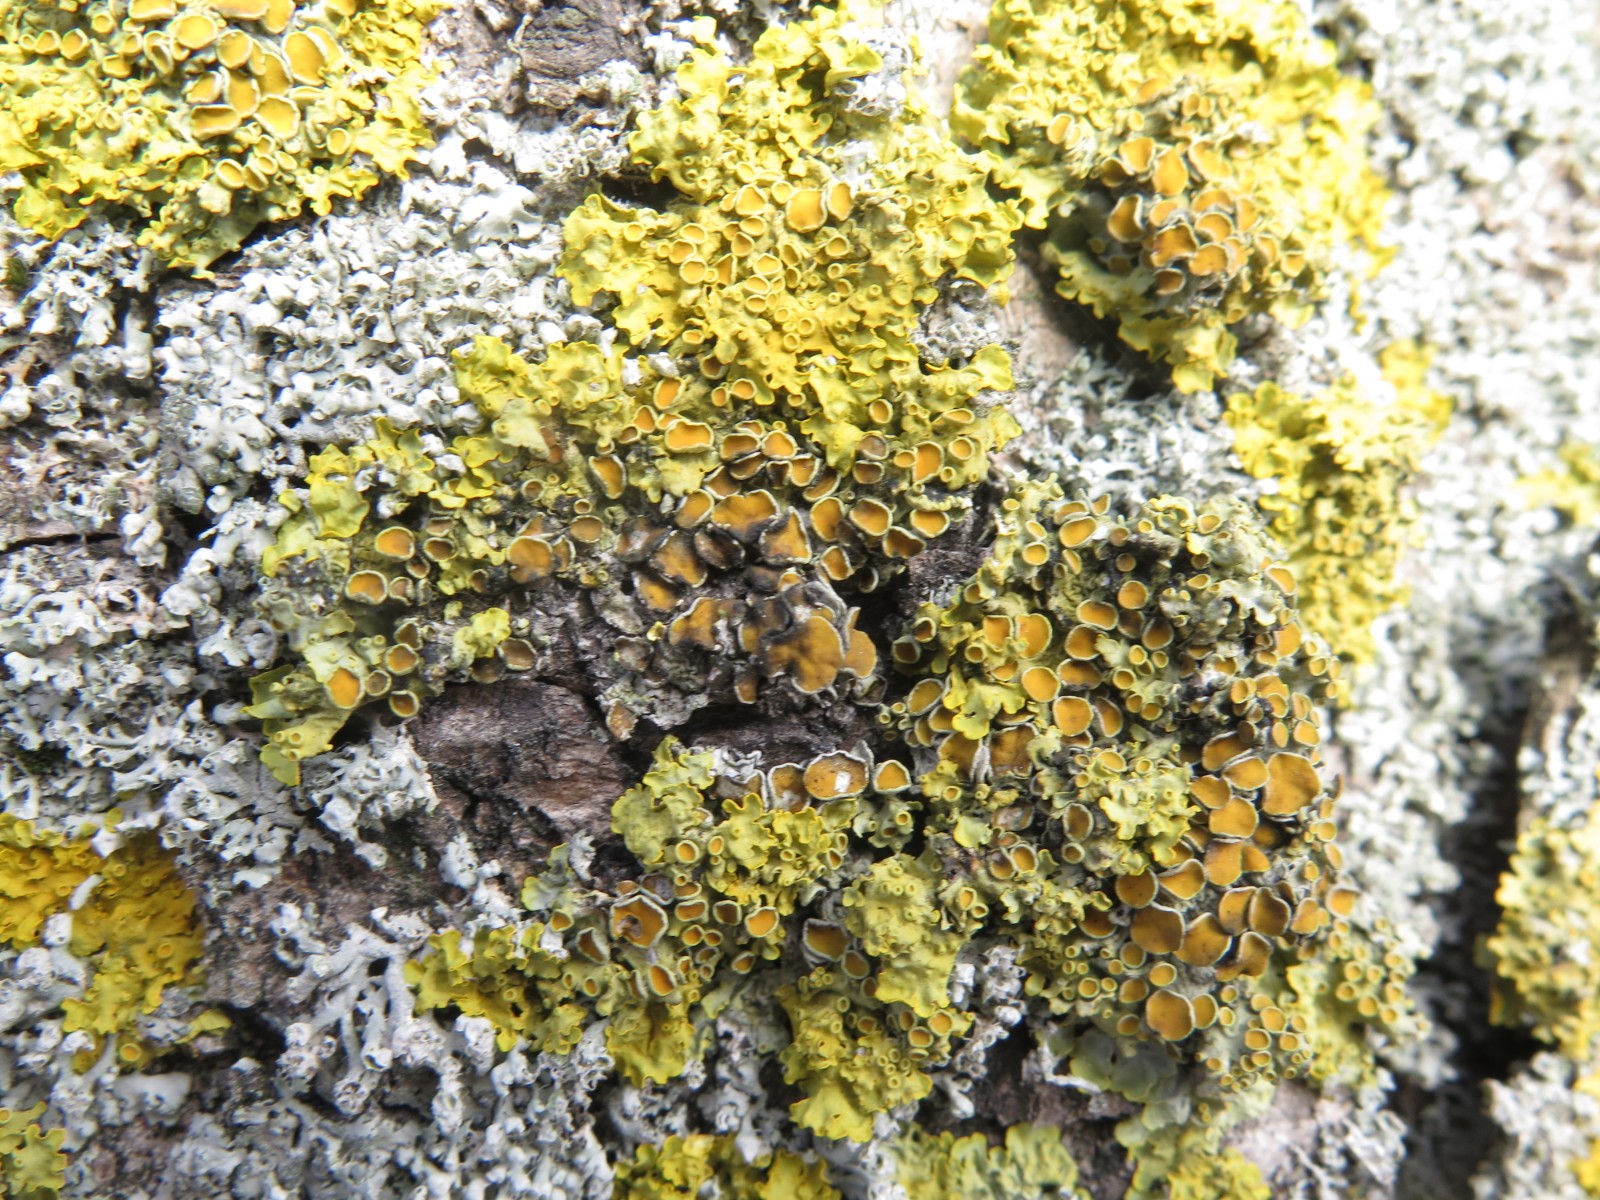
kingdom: Fungi
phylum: Ascomycota
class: Dothideomycetes
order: Mycosphaerellales
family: Teratosphaeriaceae
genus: Xanthoriicola
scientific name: Xanthoriicola physciae
